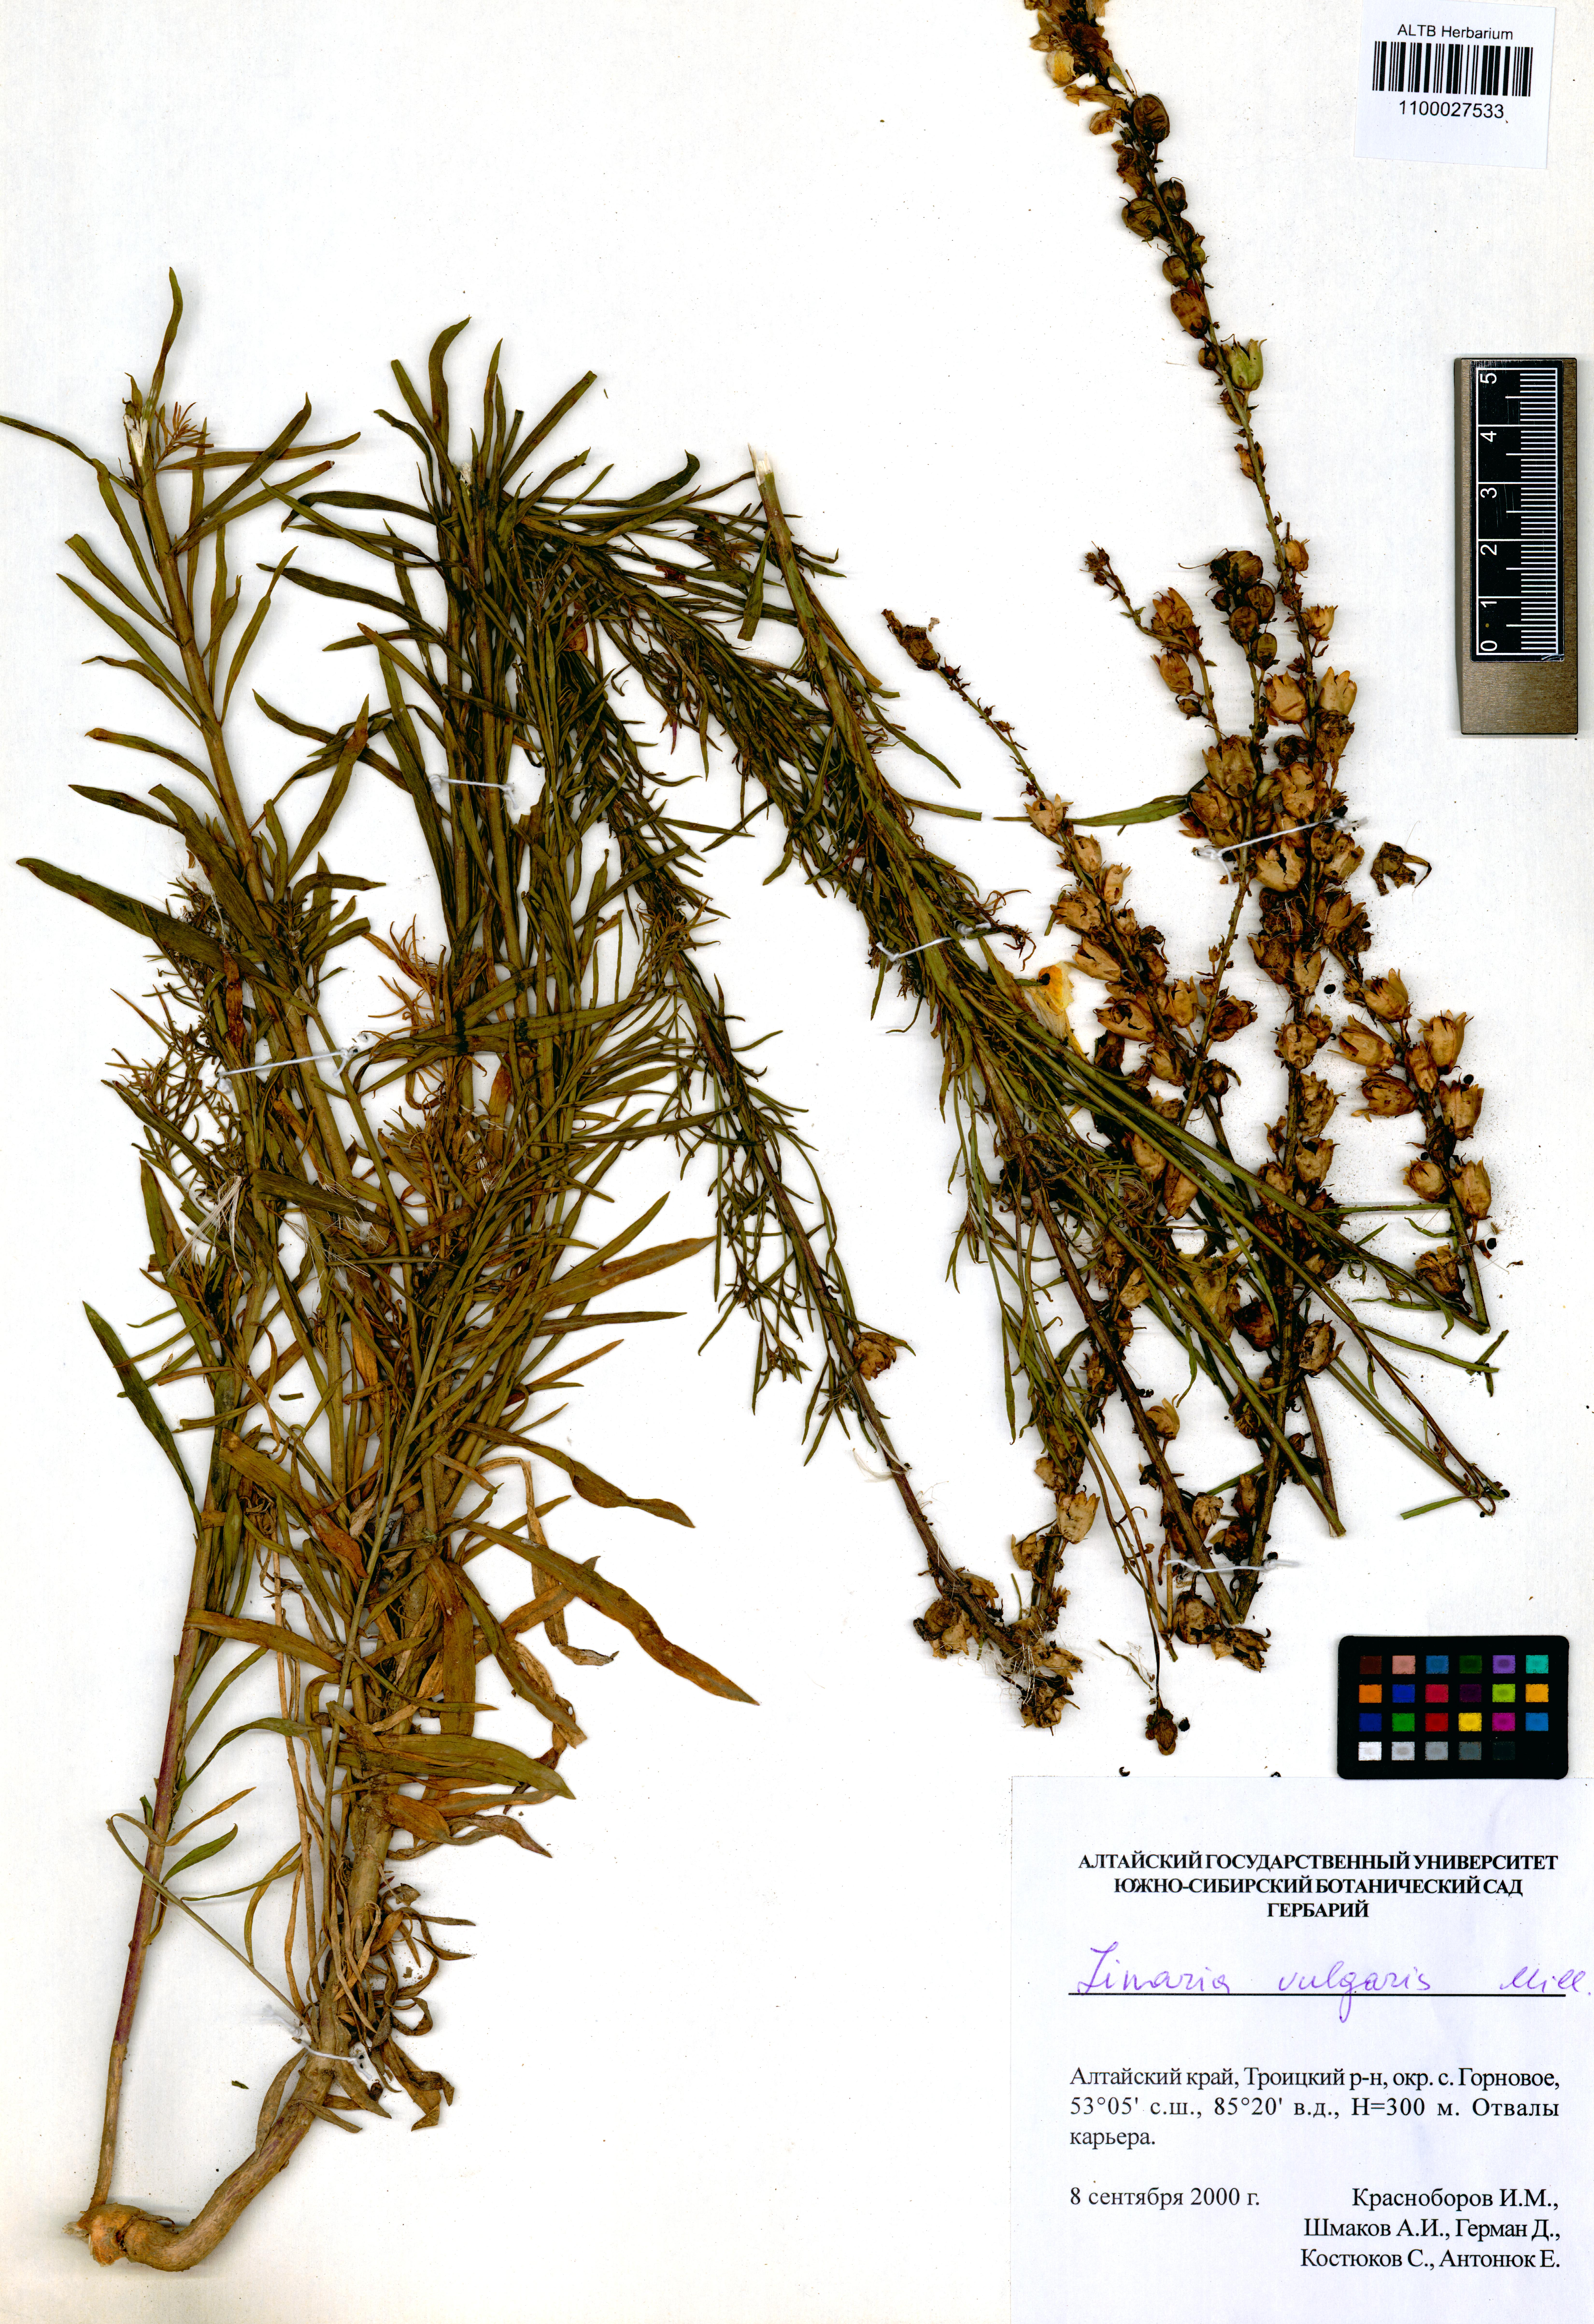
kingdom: Plantae
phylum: Tracheophyta
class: Magnoliopsida
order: Lamiales
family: Plantaginaceae
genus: Linaria
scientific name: Linaria vulgaris
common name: Butter and eggs
